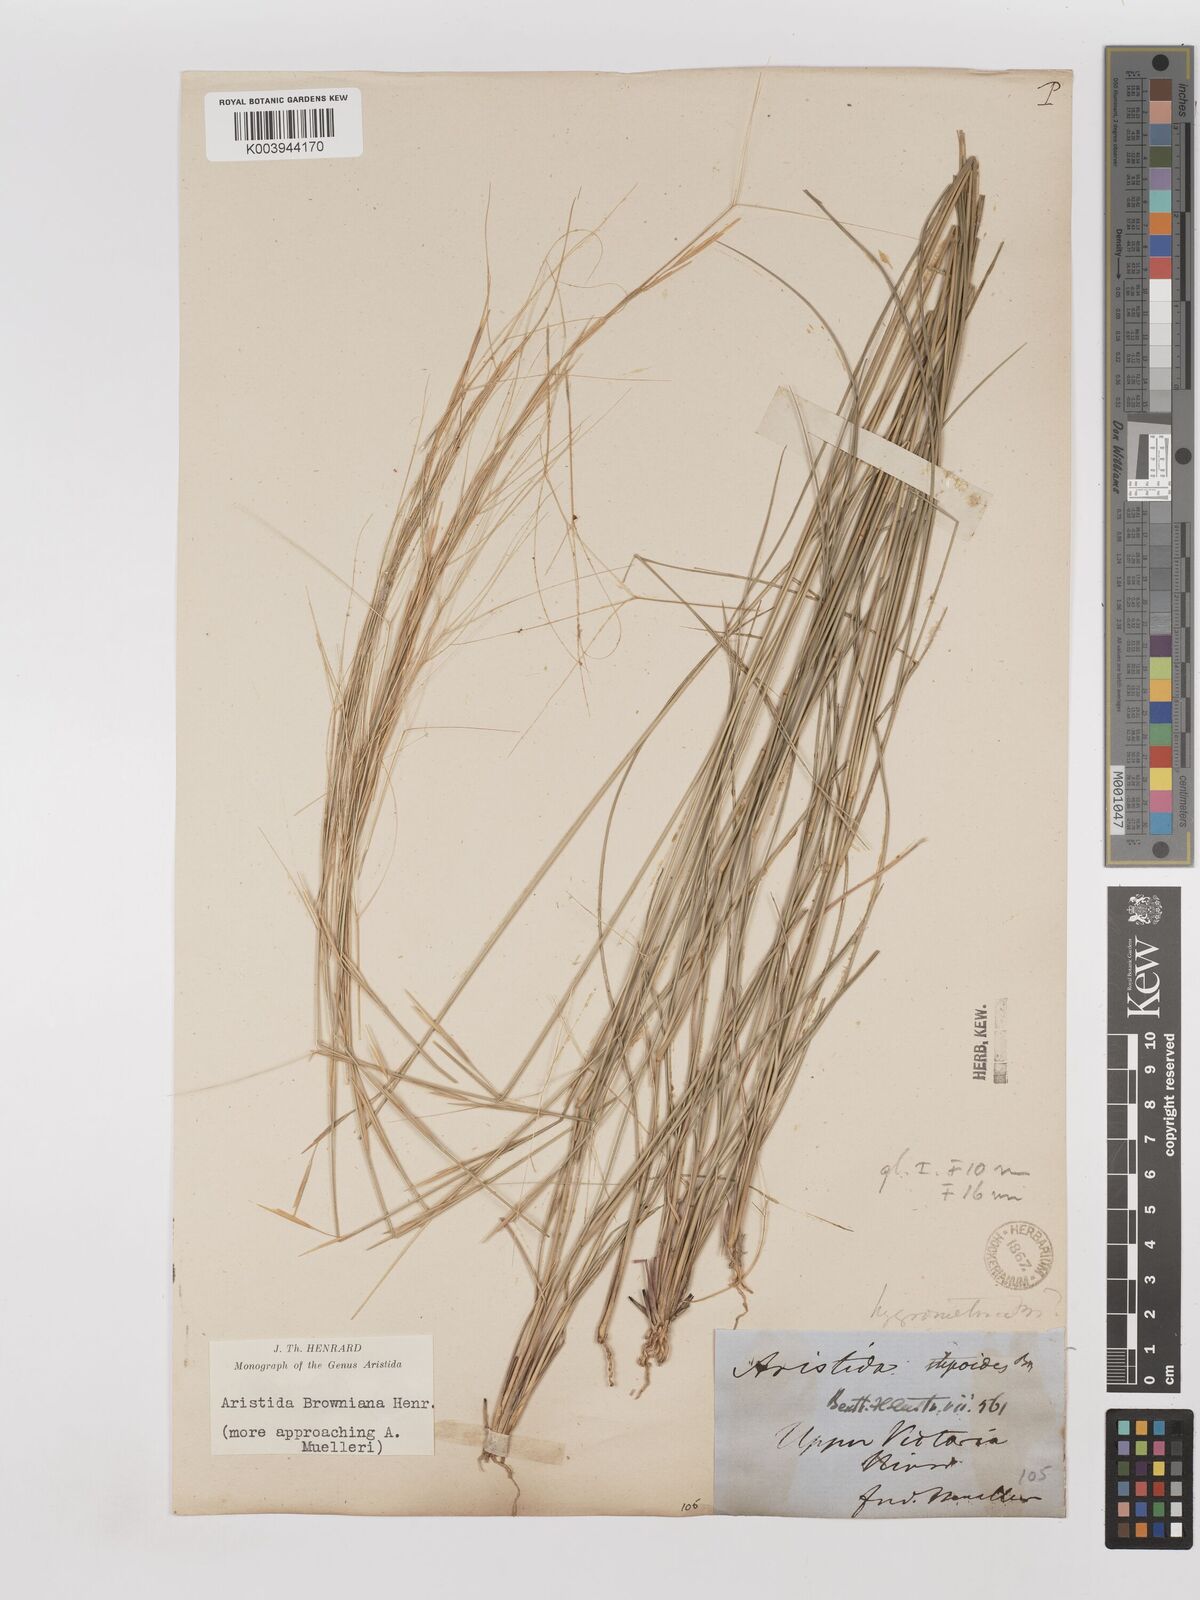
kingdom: Plantae
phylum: Tracheophyta
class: Liliopsida
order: Poales
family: Poaceae
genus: Aristida
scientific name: Aristida holathera
